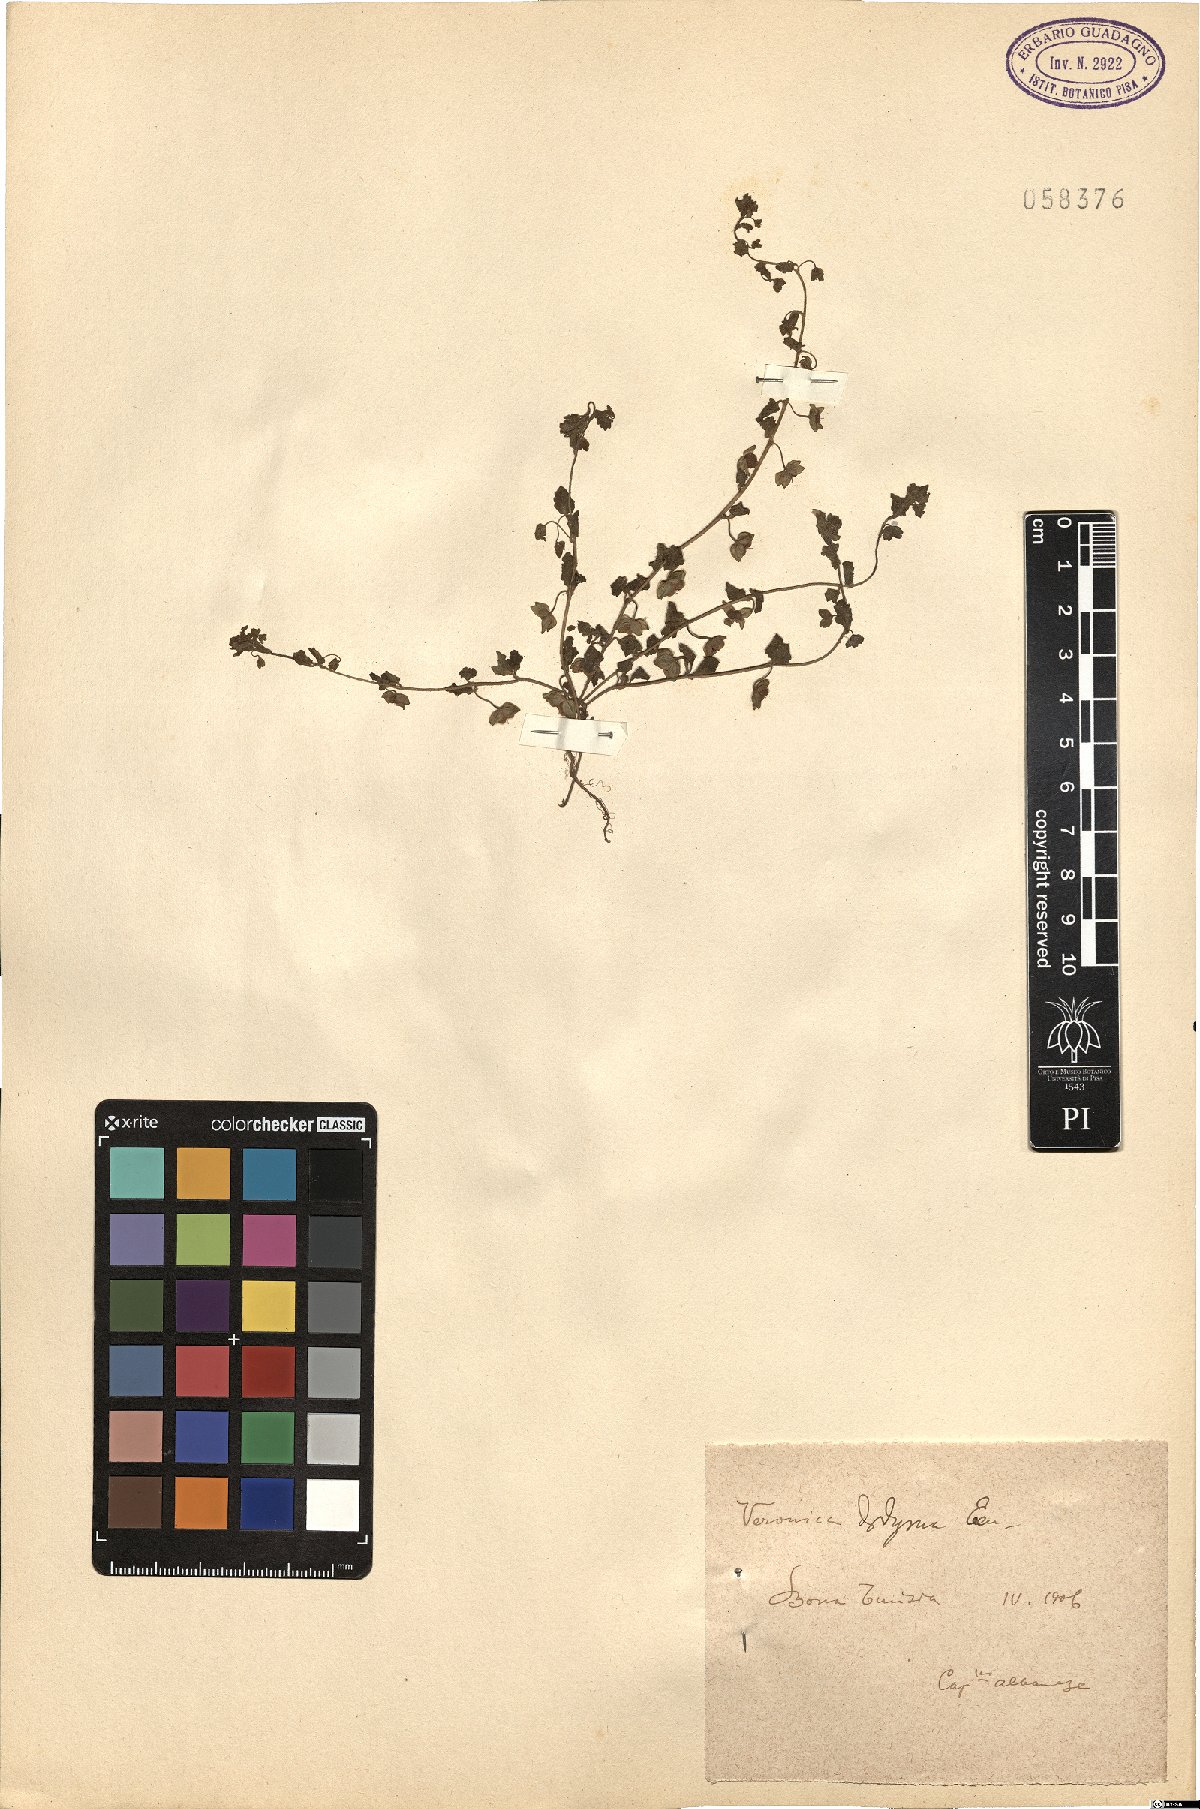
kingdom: Plantae
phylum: Tracheophyta
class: Magnoliopsida
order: Lamiales
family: Plantaginaceae
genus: Veronica
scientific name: Veronica polita
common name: Grey field-speedwell
